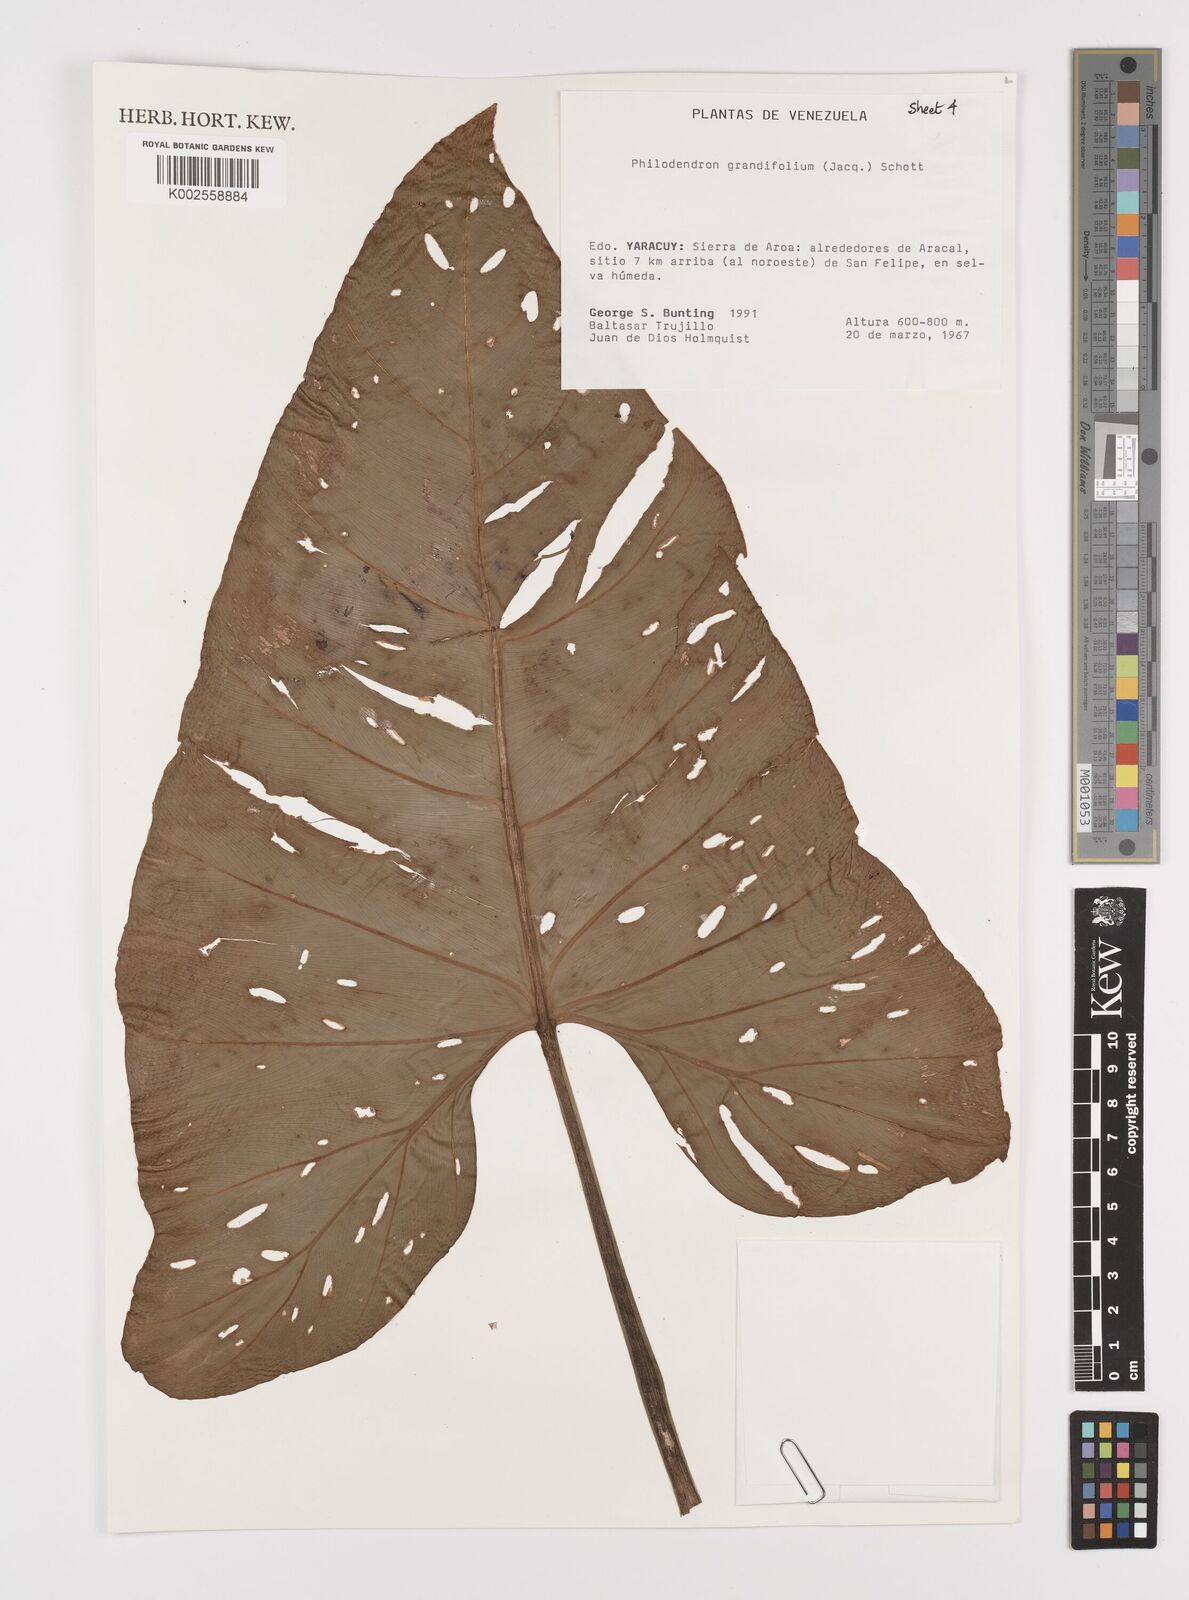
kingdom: Plantae
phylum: Tracheophyta
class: Liliopsida
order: Alismatales
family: Araceae
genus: Philodendron
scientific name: Philodendron grandifolium
